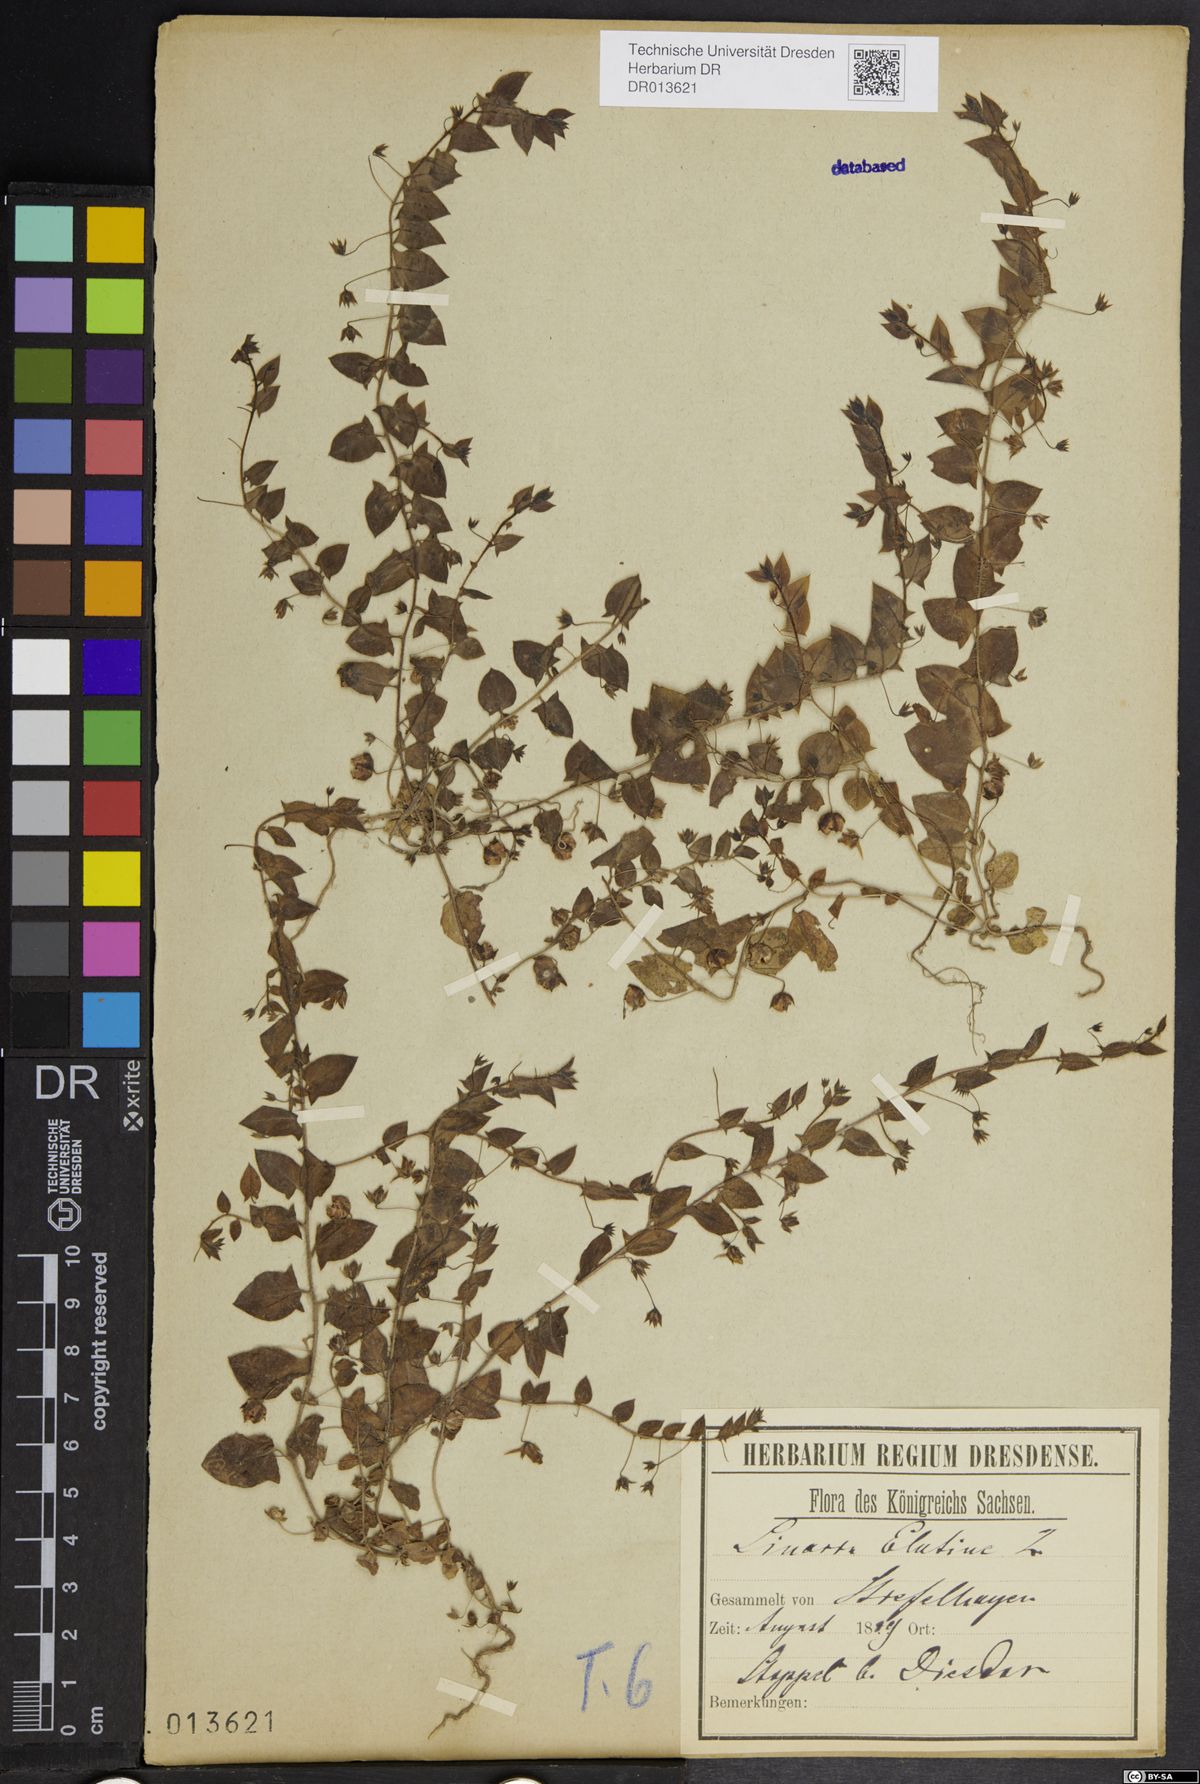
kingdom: Plantae
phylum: Tracheophyta
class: Magnoliopsida
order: Lamiales
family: Plantaginaceae
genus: Kickxia
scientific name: Kickxia elatine
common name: Sharp-leaved fluellen
